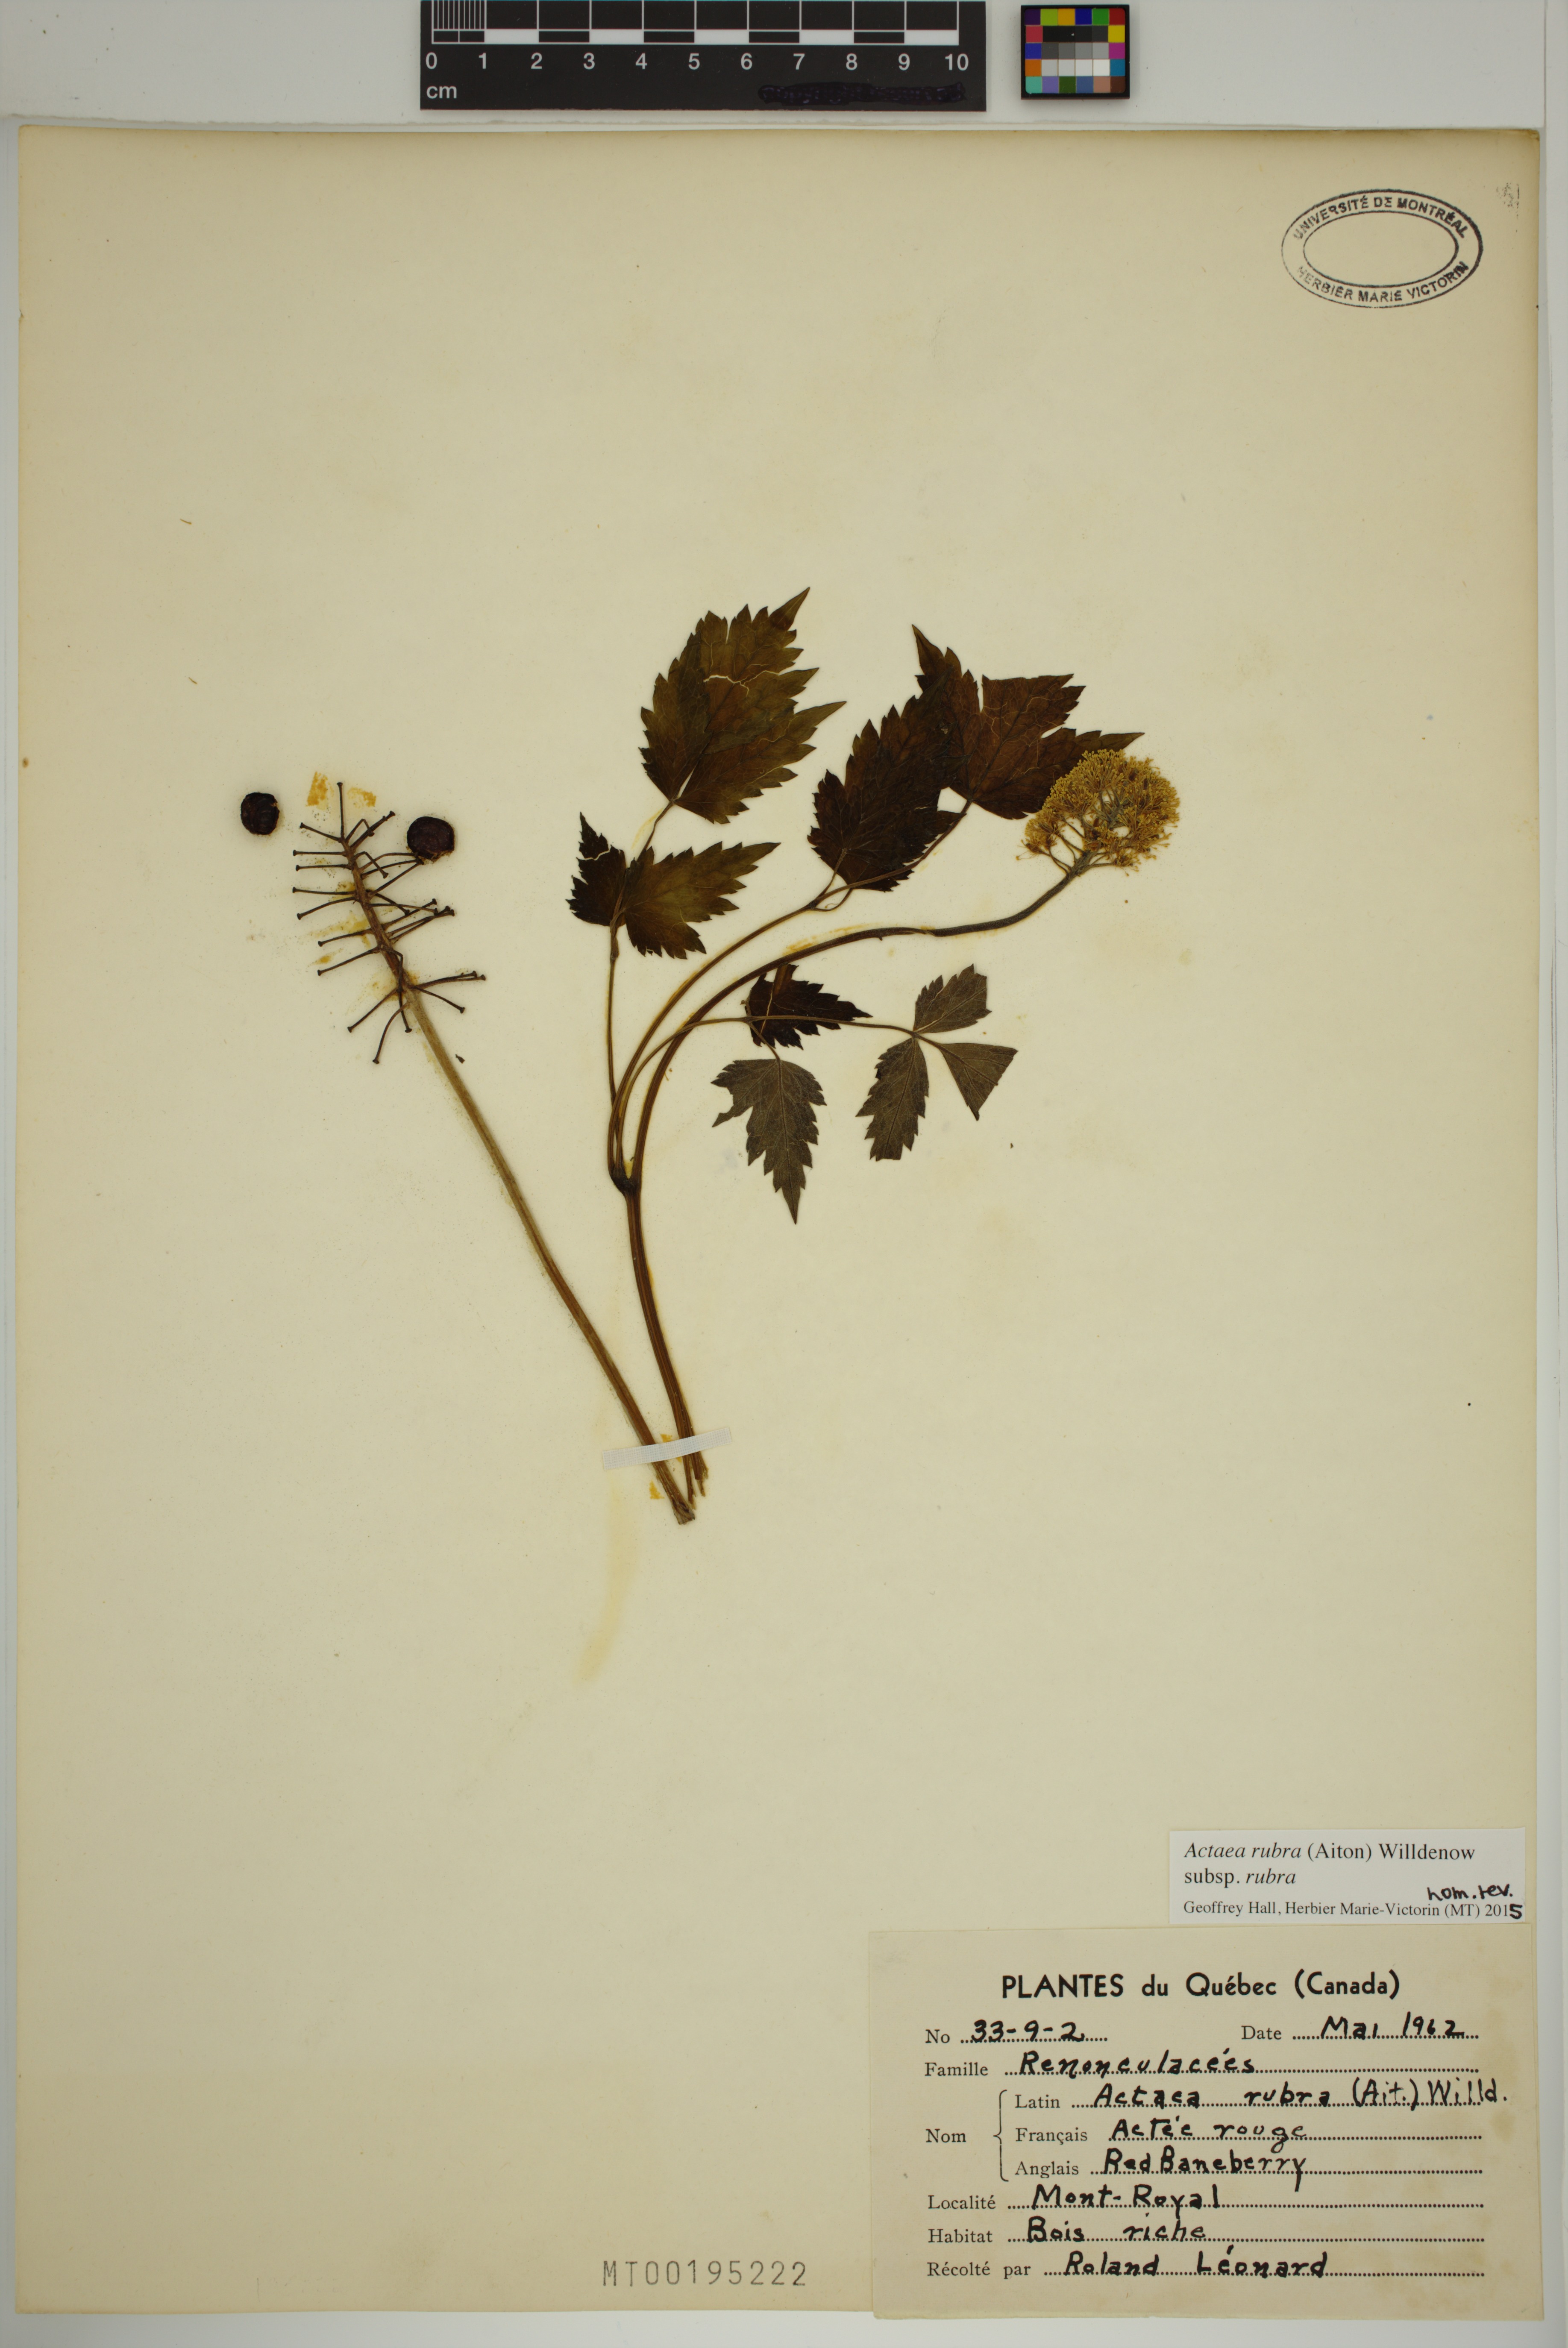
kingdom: Plantae
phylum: Tracheophyta
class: Magnoliopsida
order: Ranunculales
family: Ranunculaceae
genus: Actaea
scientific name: Actaea rubra
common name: Red baneberry
